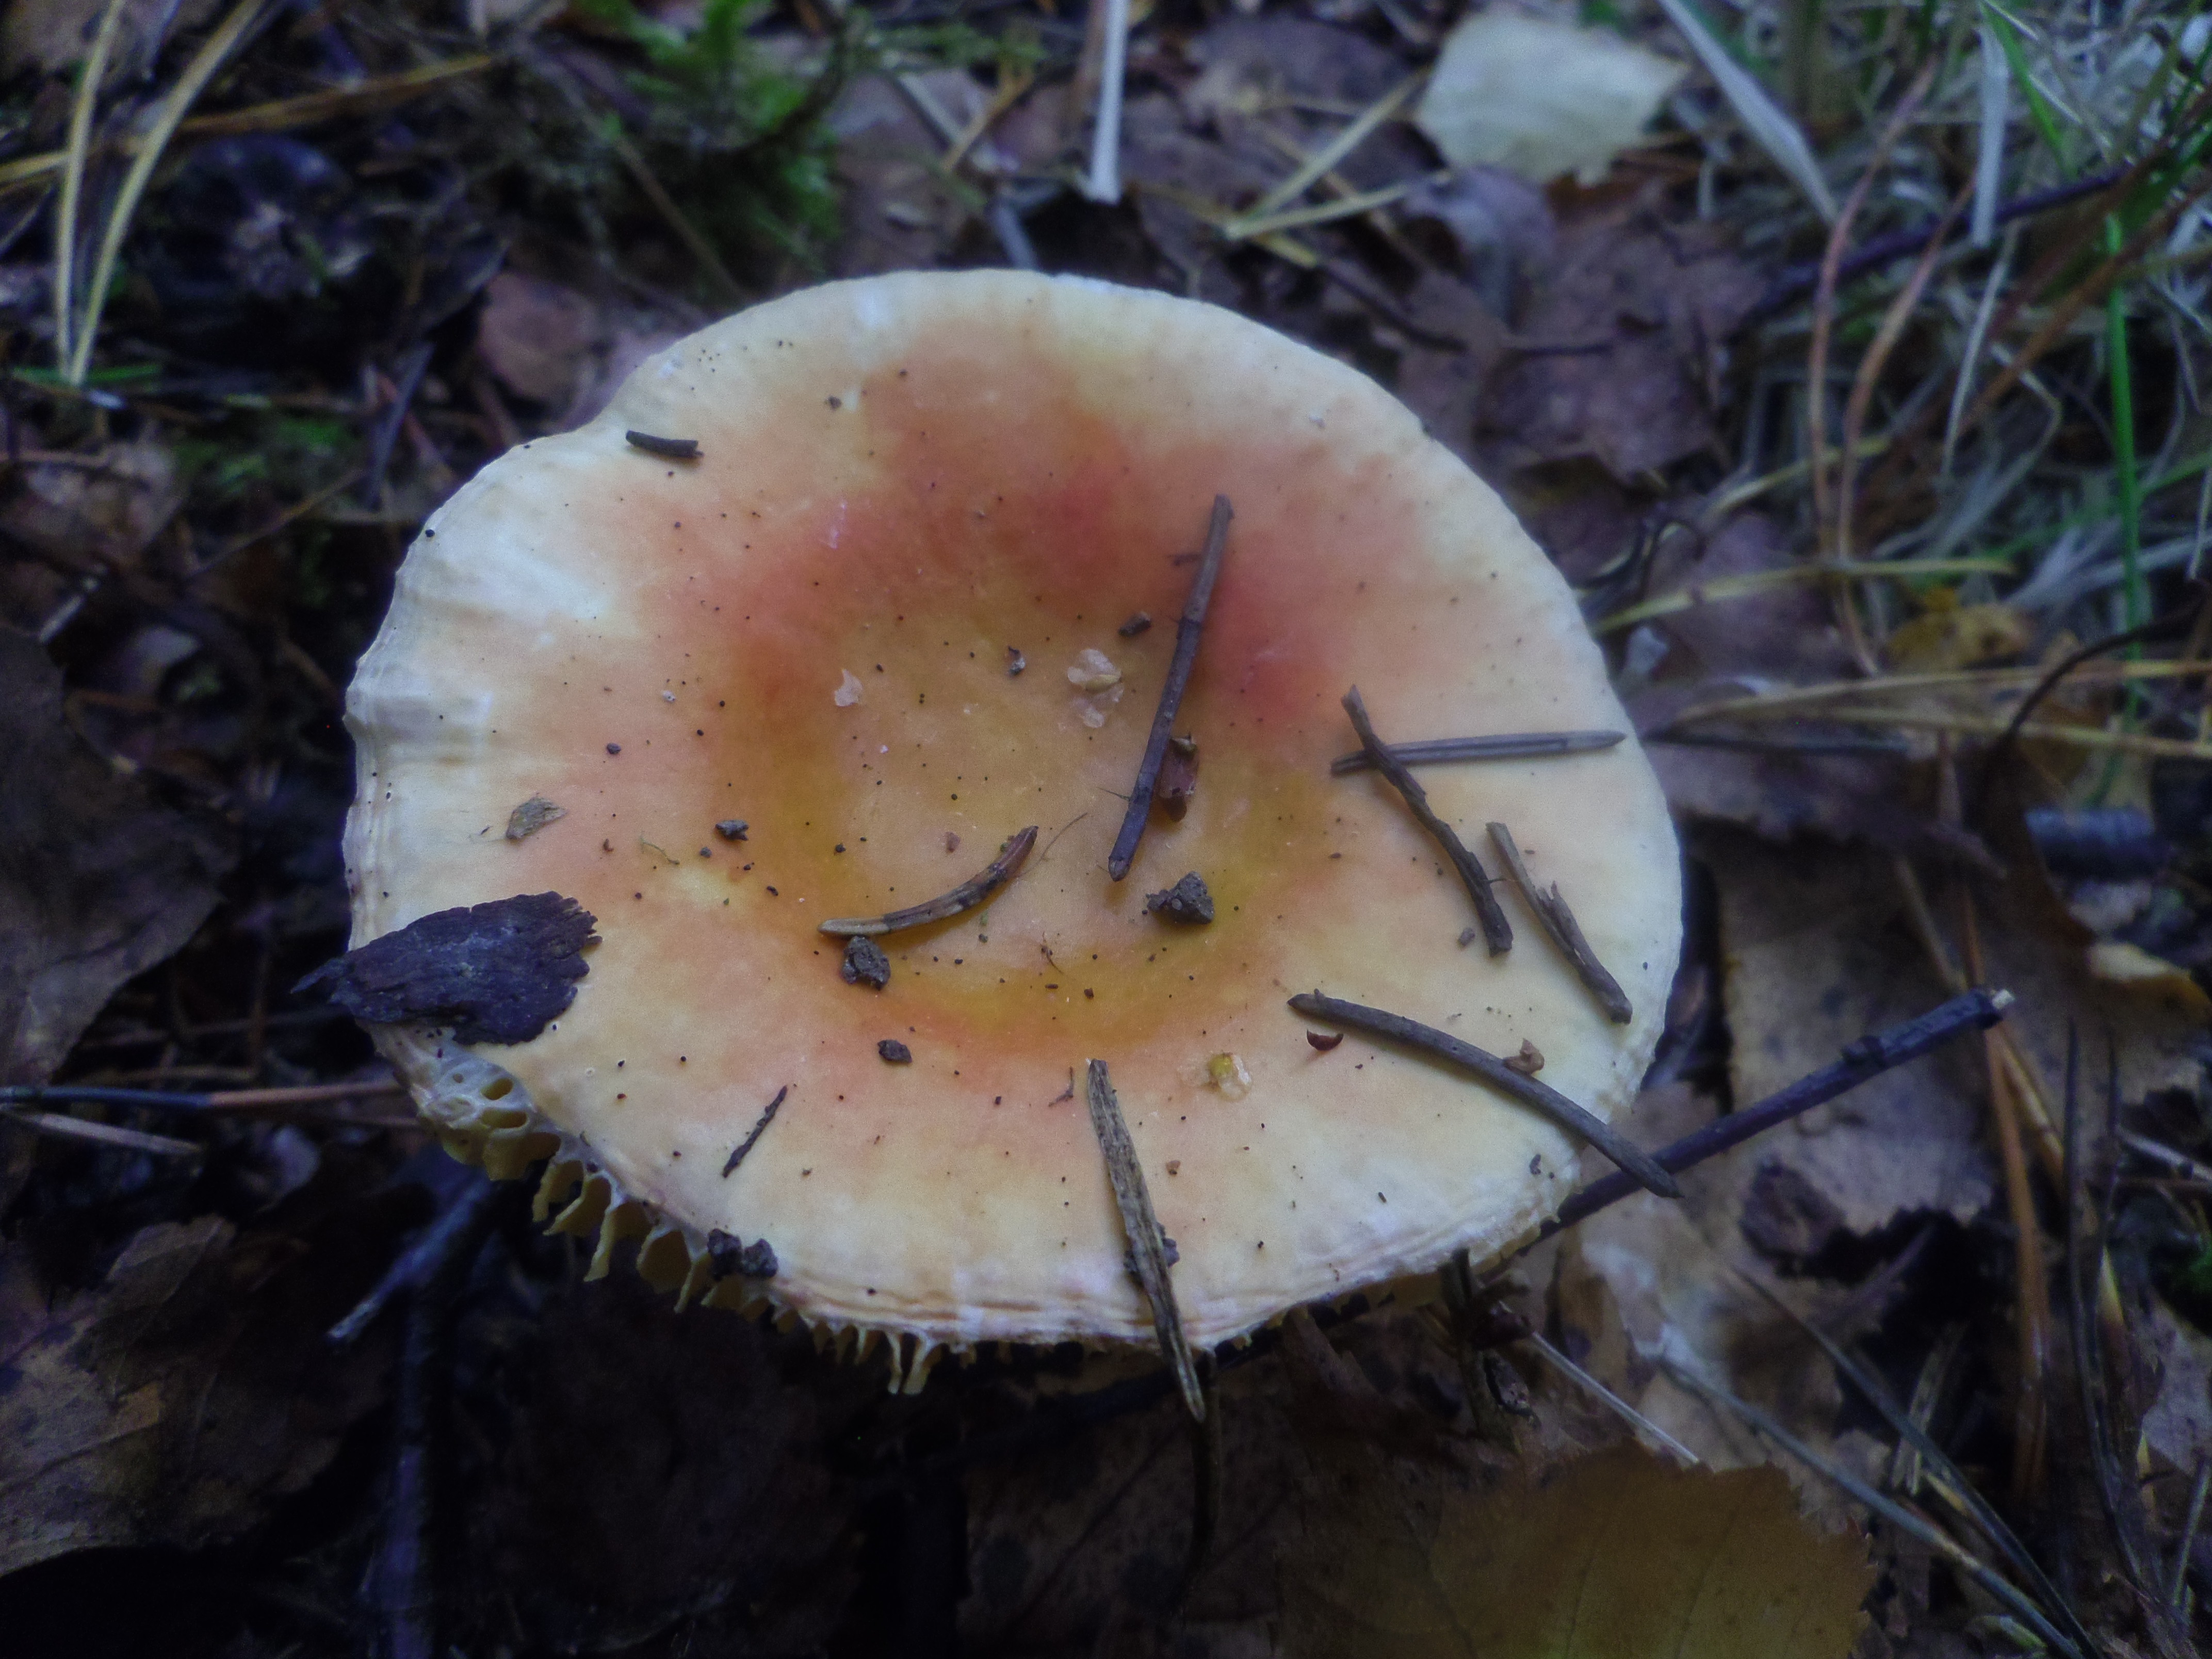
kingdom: Fungi
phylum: Basidiomycota
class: Agaricomycetes
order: Russulales
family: Russulaceae
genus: Russula
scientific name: Russula risigallina
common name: Golden brittlegill
